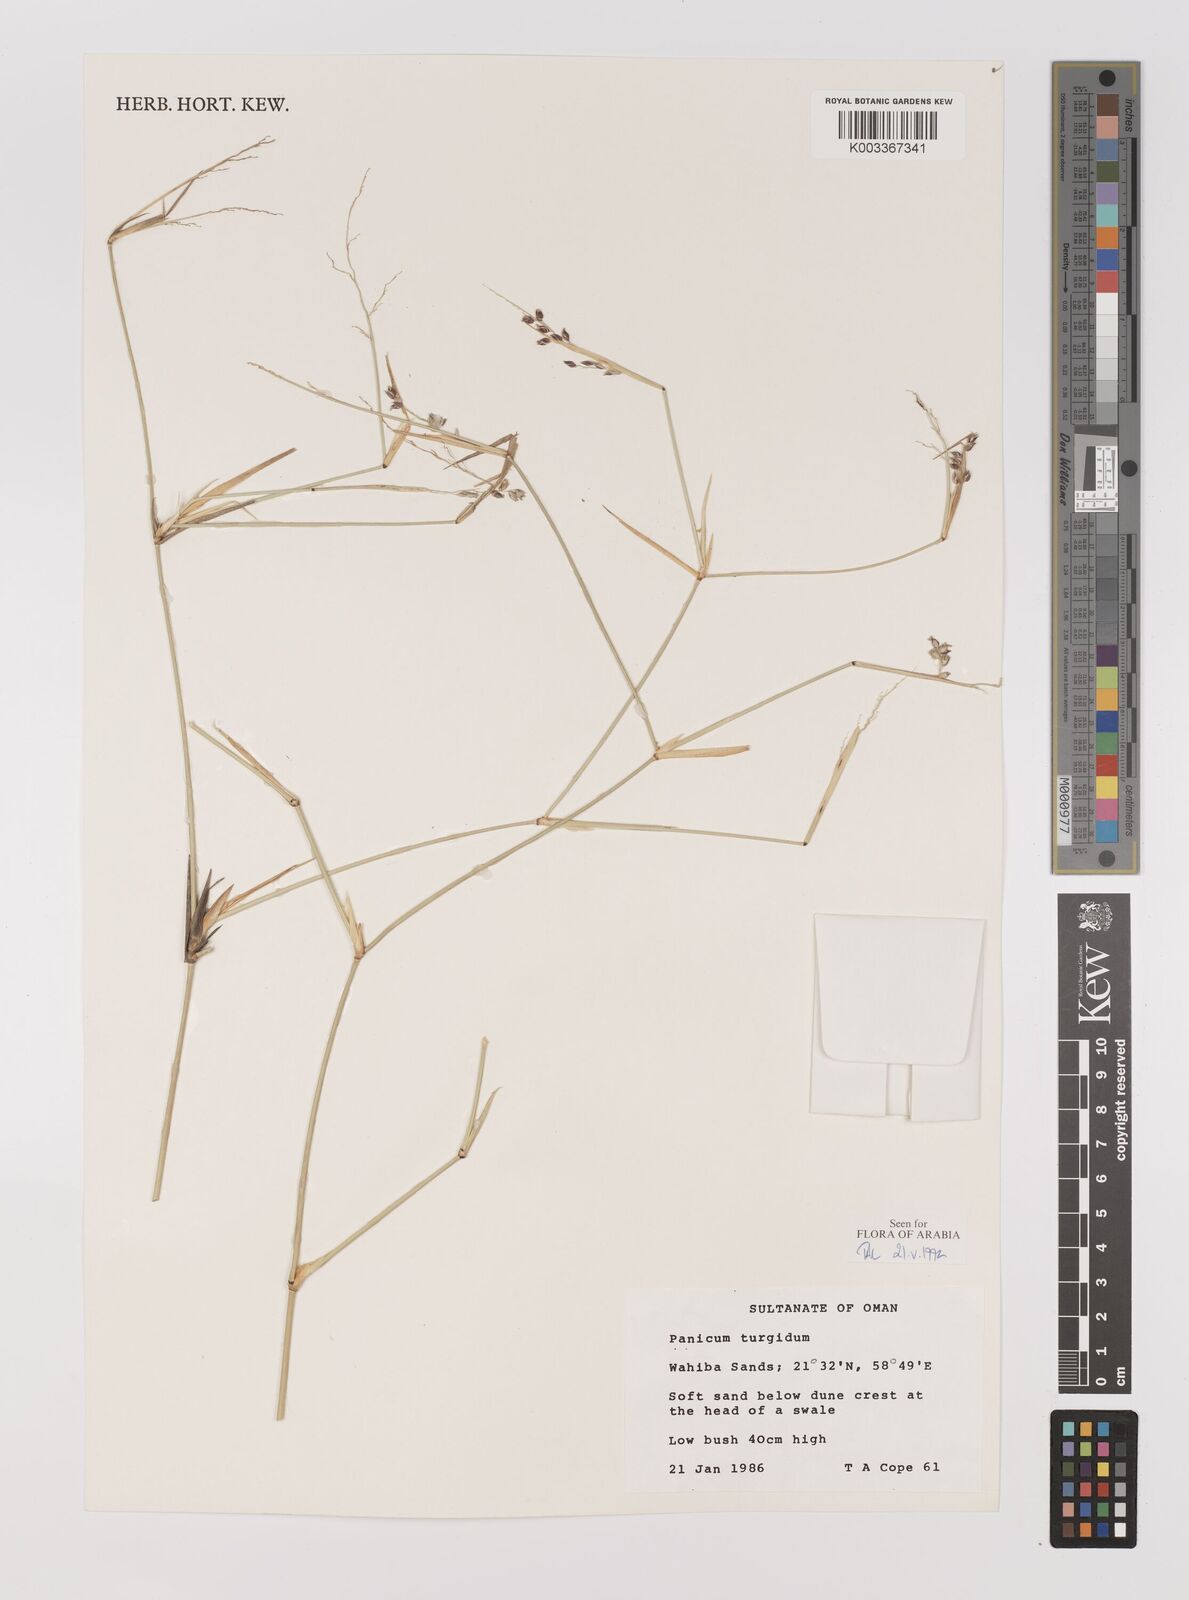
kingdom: Plantae
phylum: Tracheophyta
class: Liliopsida
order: Poales
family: Poaceae
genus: Panicum
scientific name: Panicum turgidum
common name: Desert grass
